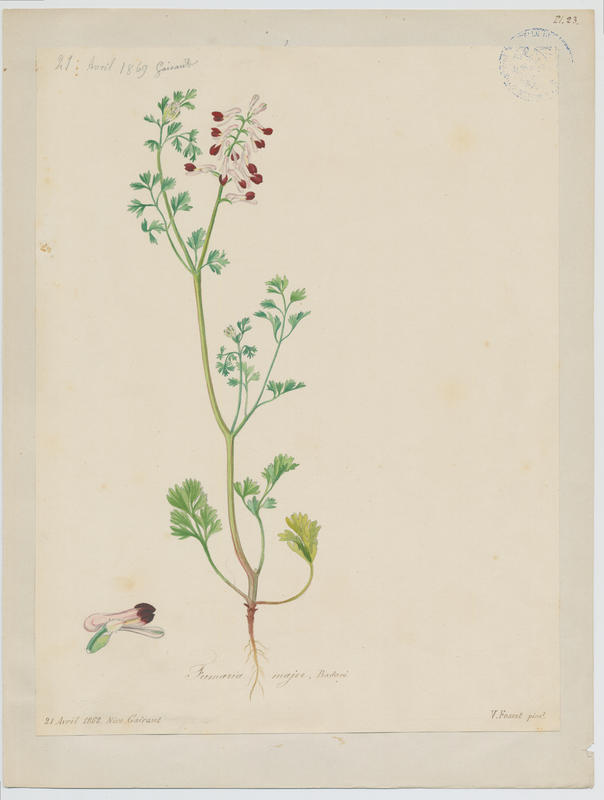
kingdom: Plantae
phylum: Tracheophyta
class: Magnoliopsida
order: Ranunculales
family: Papaveraceae
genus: Fumaria
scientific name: Fumaria barnolae
